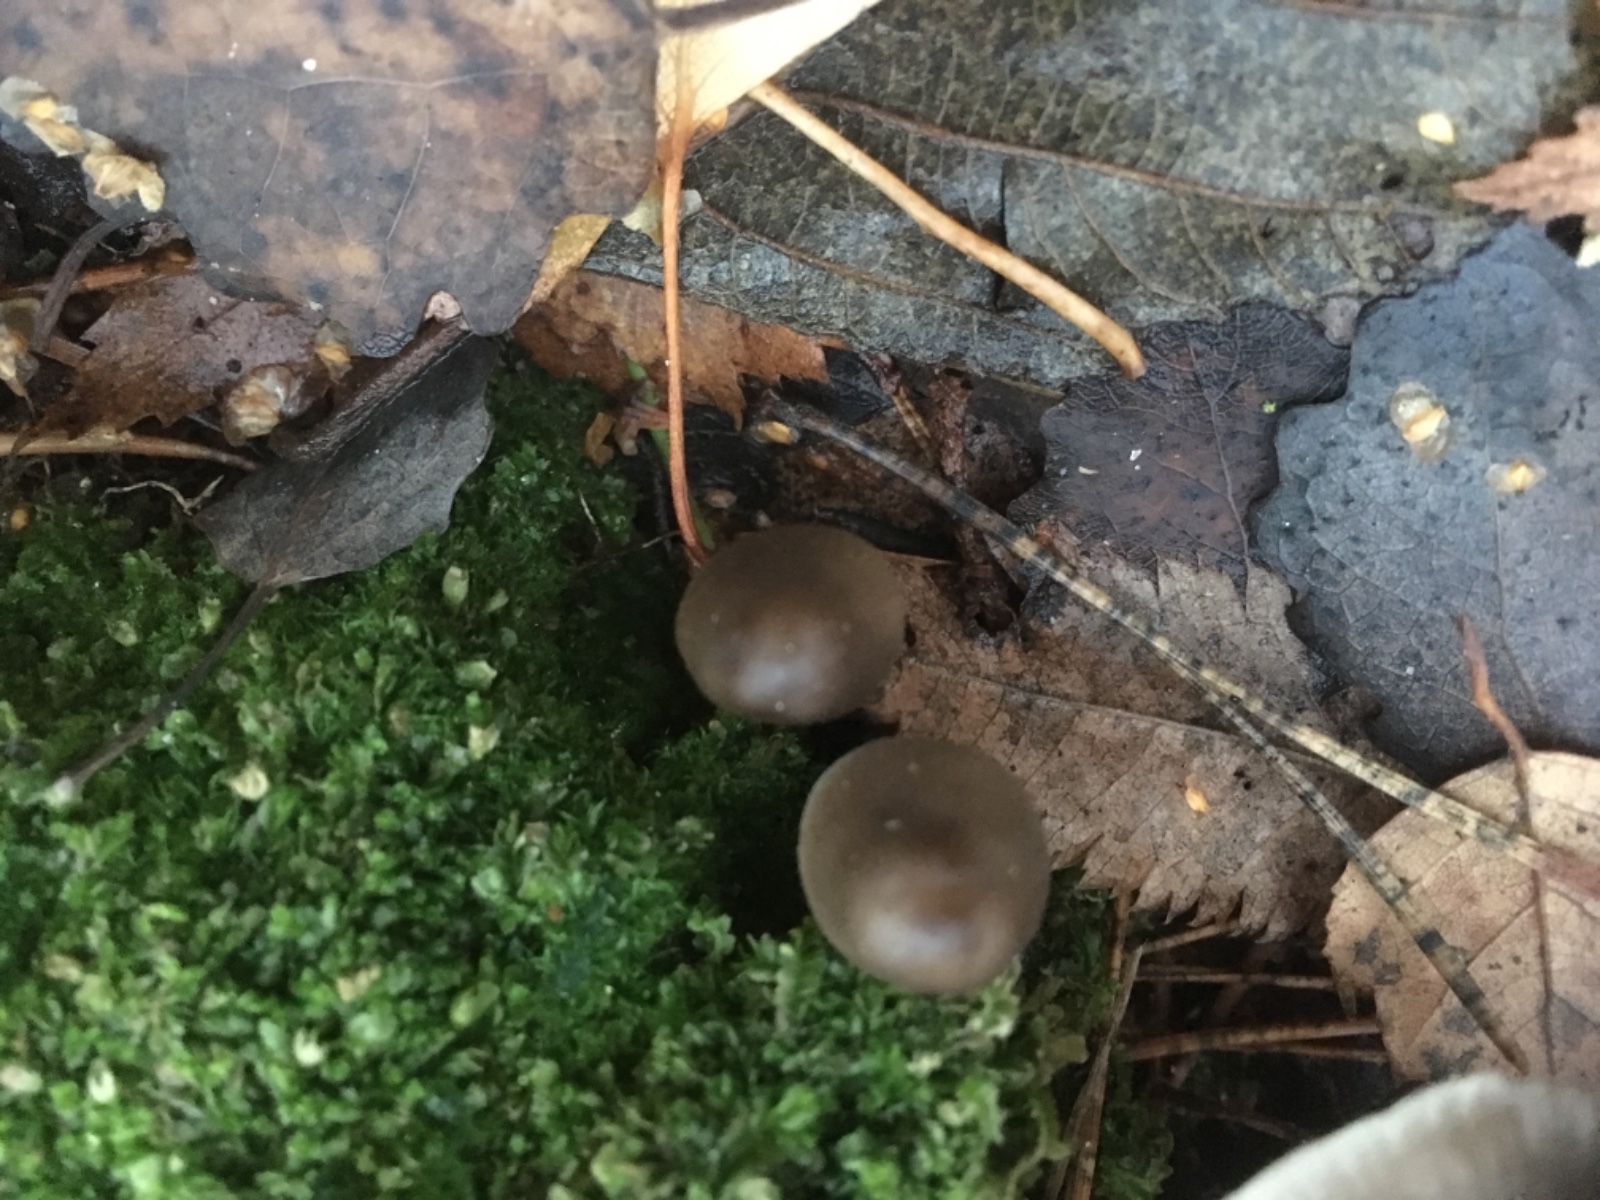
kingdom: Fungi
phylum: Basidiomycota
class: Agaricomycetes
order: Agaricales
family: Mycenaceae
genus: Mycena
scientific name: Mycena
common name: huesvamp
